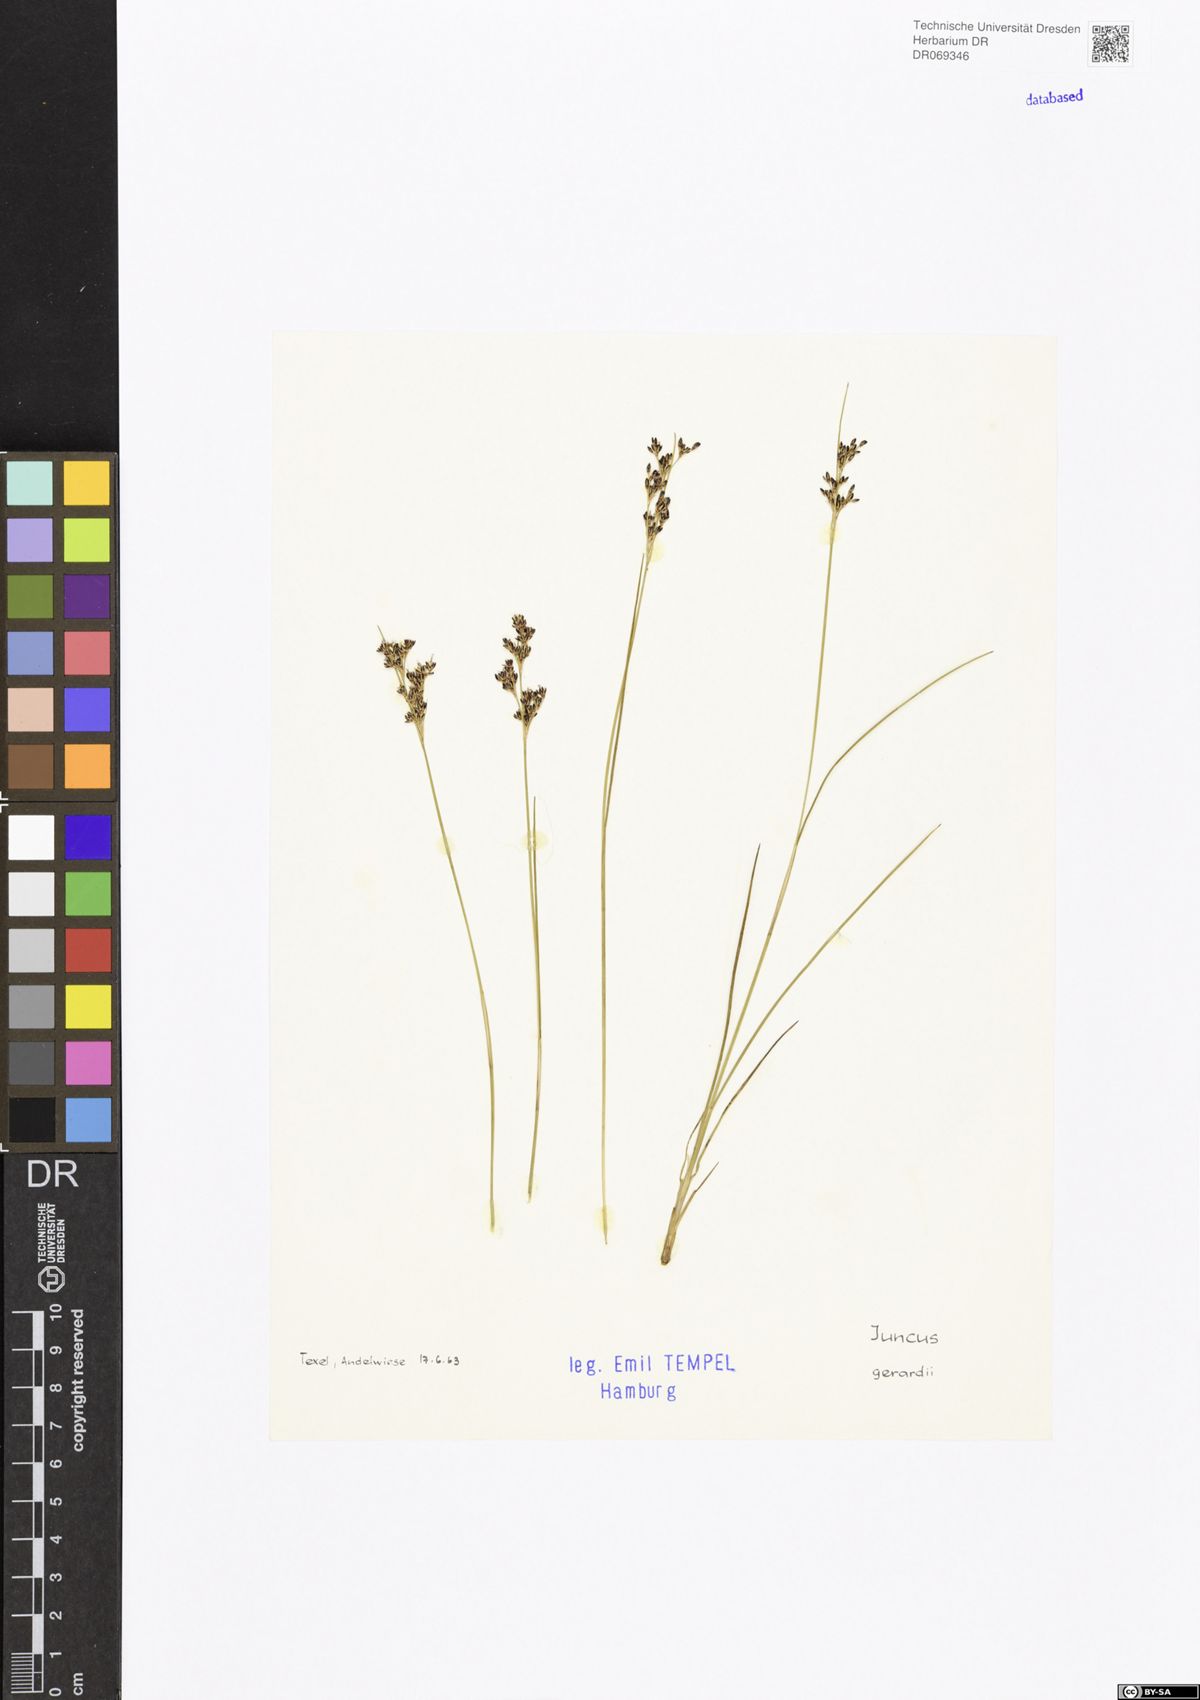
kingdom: Plantae
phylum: Tracheophyta
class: Liliopsida
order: Poales
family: Juncaceae
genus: Juncus
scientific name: Juncus gerardi
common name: Saltmarsh rush
